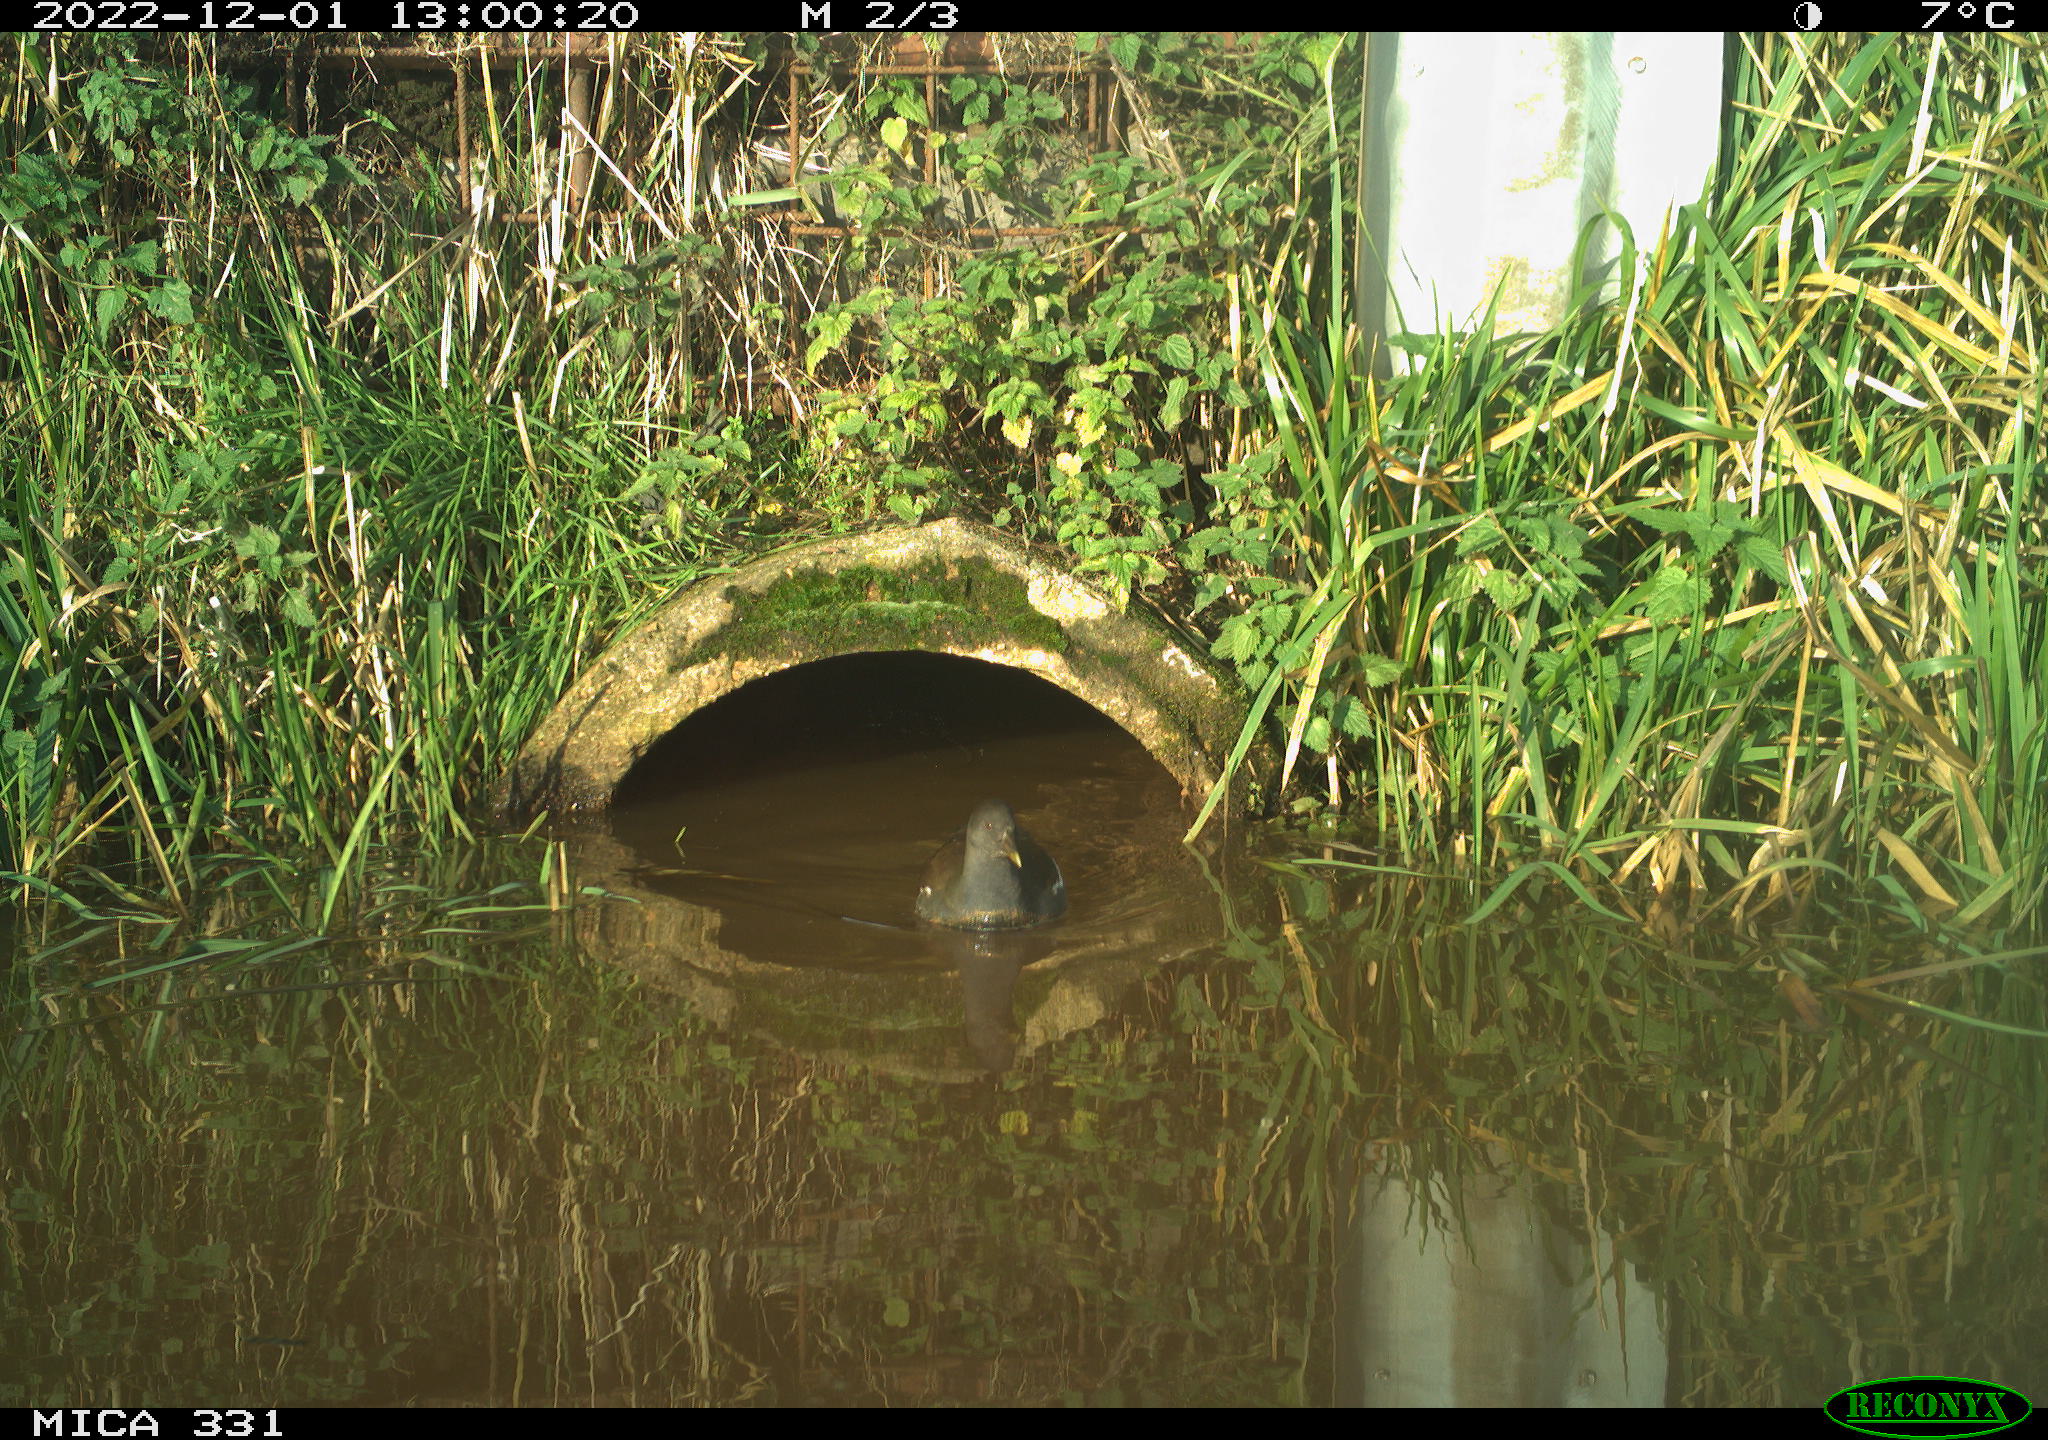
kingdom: Animalia
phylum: Chordata
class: Aves
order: Gruiformes
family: Rallidae
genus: Gallinula
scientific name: Gallinula chloropus
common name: Common moorhen
